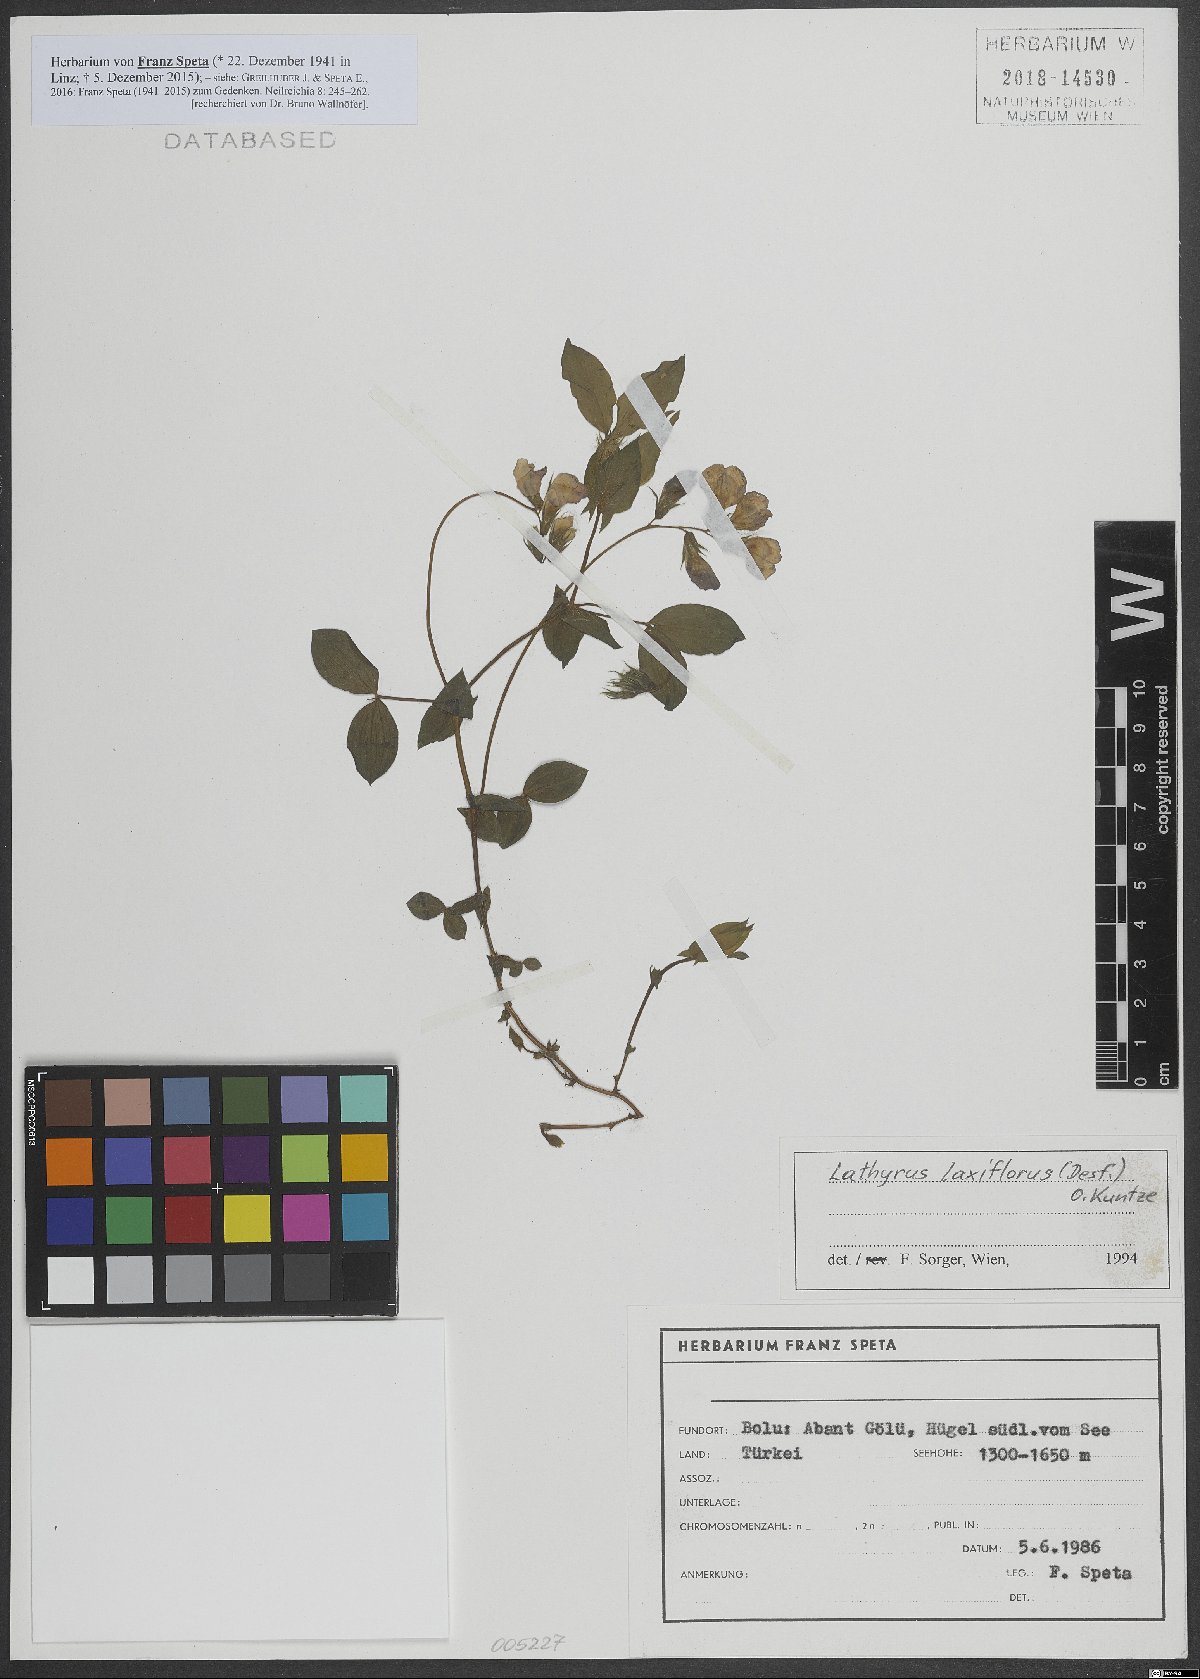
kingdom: Plantae
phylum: Tracheophyta
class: Magnoliopsida
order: Fabales
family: Fabaceae
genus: Lathyrus
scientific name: Lathyrus laxiflorus
